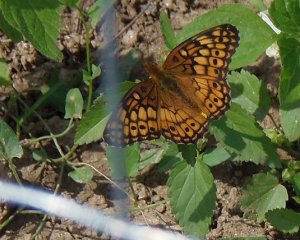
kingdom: Animalia
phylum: Arthropoda
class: Insecta
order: Lepidoptera
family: Nymphalidae
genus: Euptoieta
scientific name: Euptoieta claudia
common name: Variegated Fritillary
